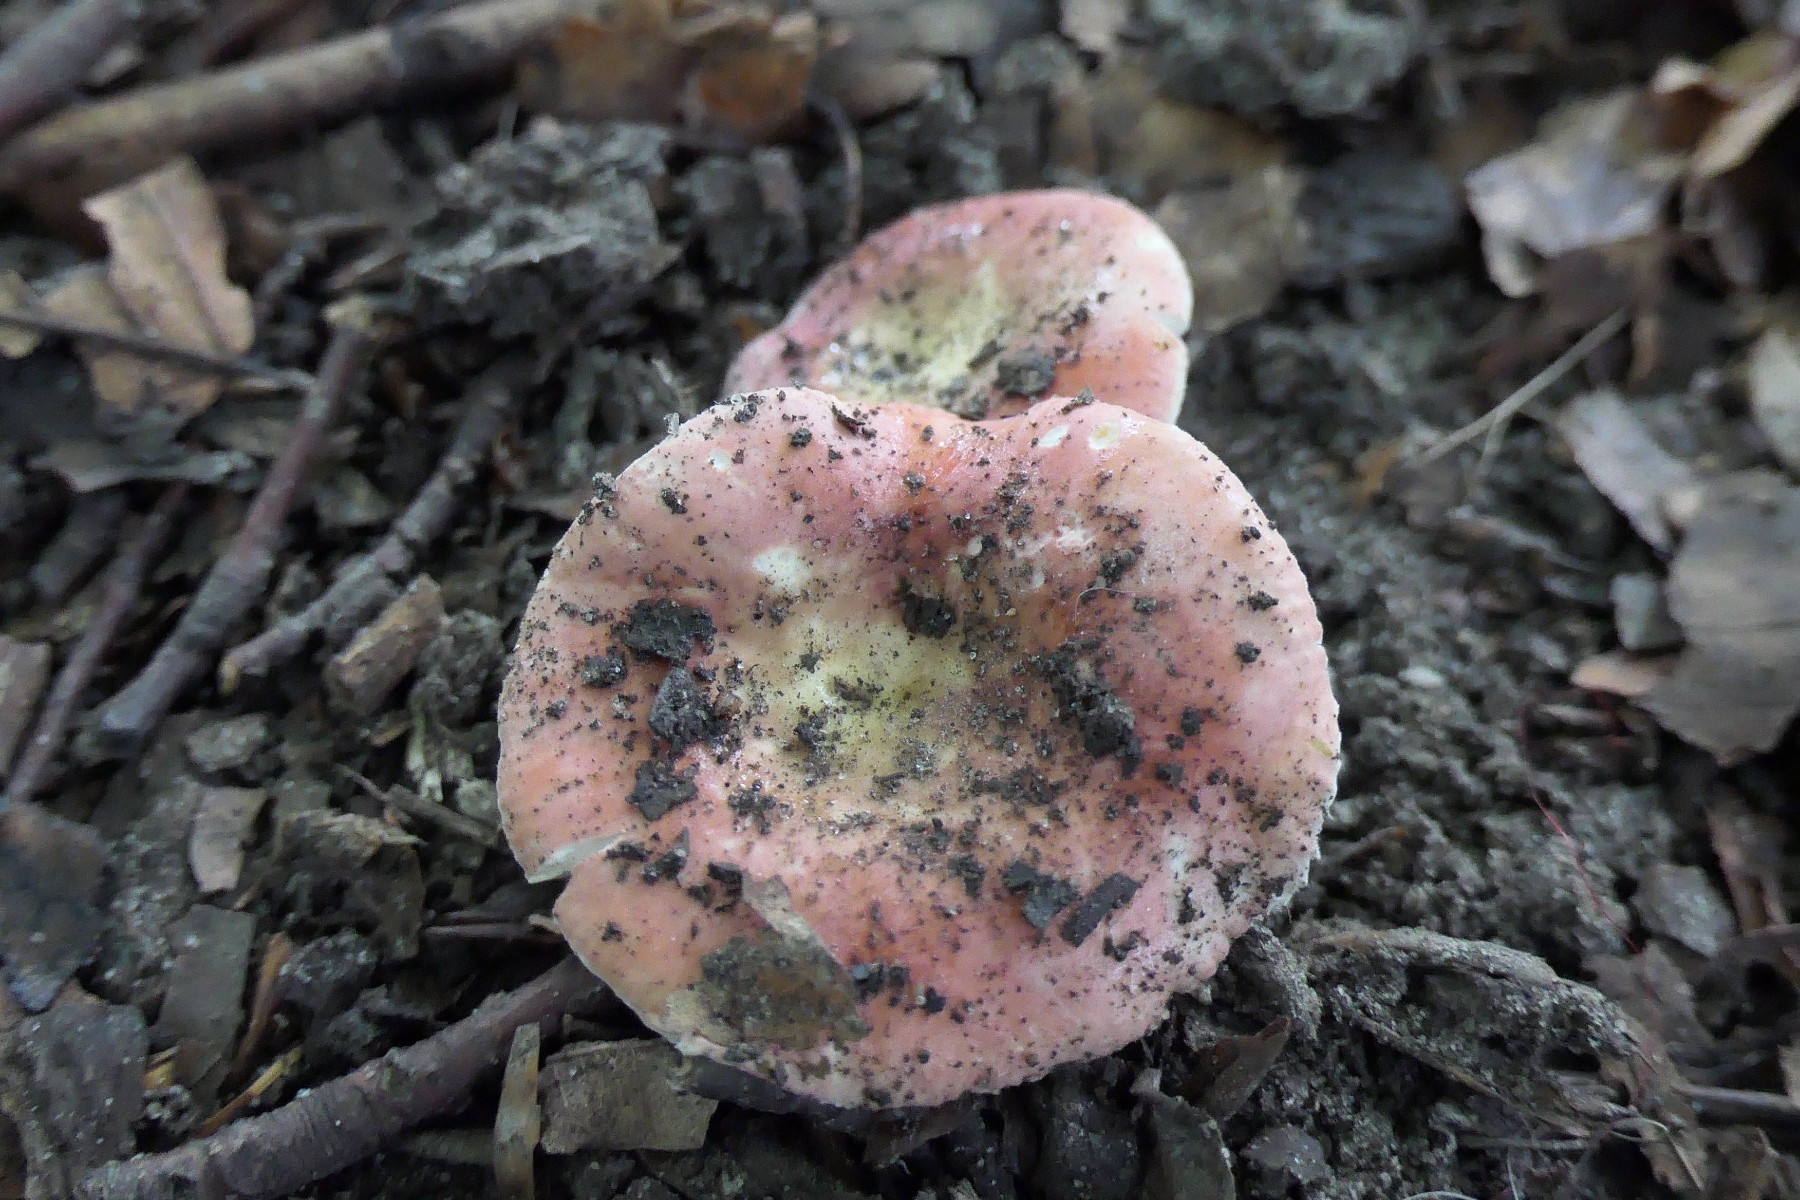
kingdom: Fungi
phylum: Basidiomycota
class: Agaricomycetes
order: Russulales
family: Russulaceae
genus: Russula
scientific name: Russula veternosa
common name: blødkødet skørhat
